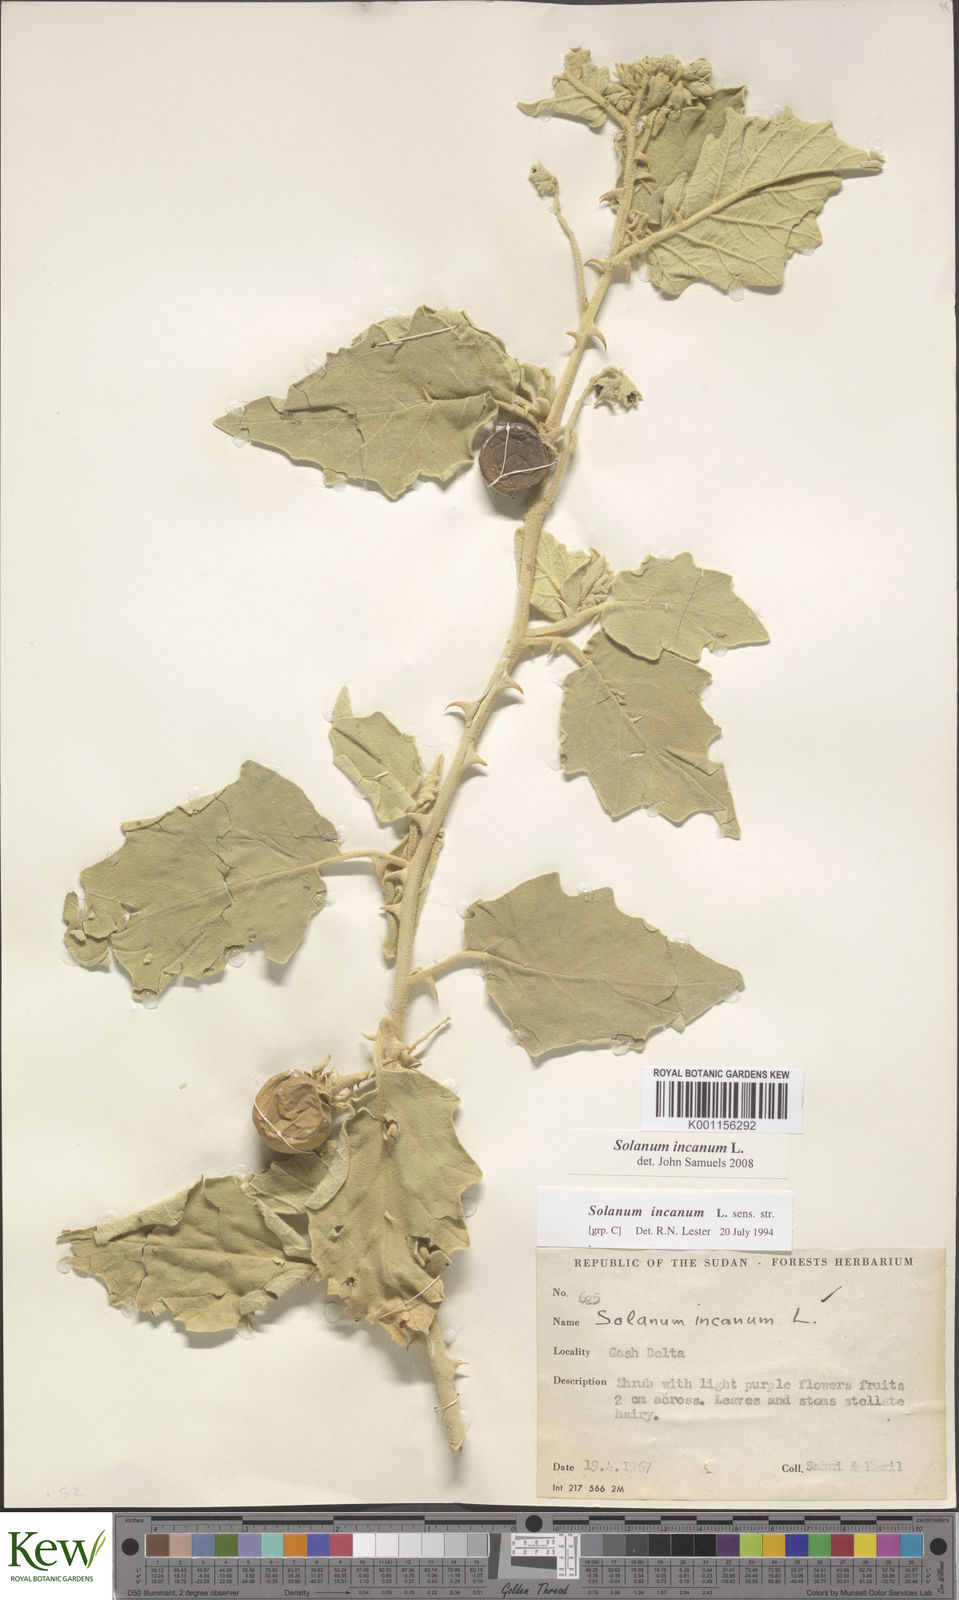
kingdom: Plantae
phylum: Tracheophyta
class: Magnoliopsida
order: Solanales
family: Solanaceae
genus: Solanum
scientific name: Solanum incanum
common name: Bitter apple
